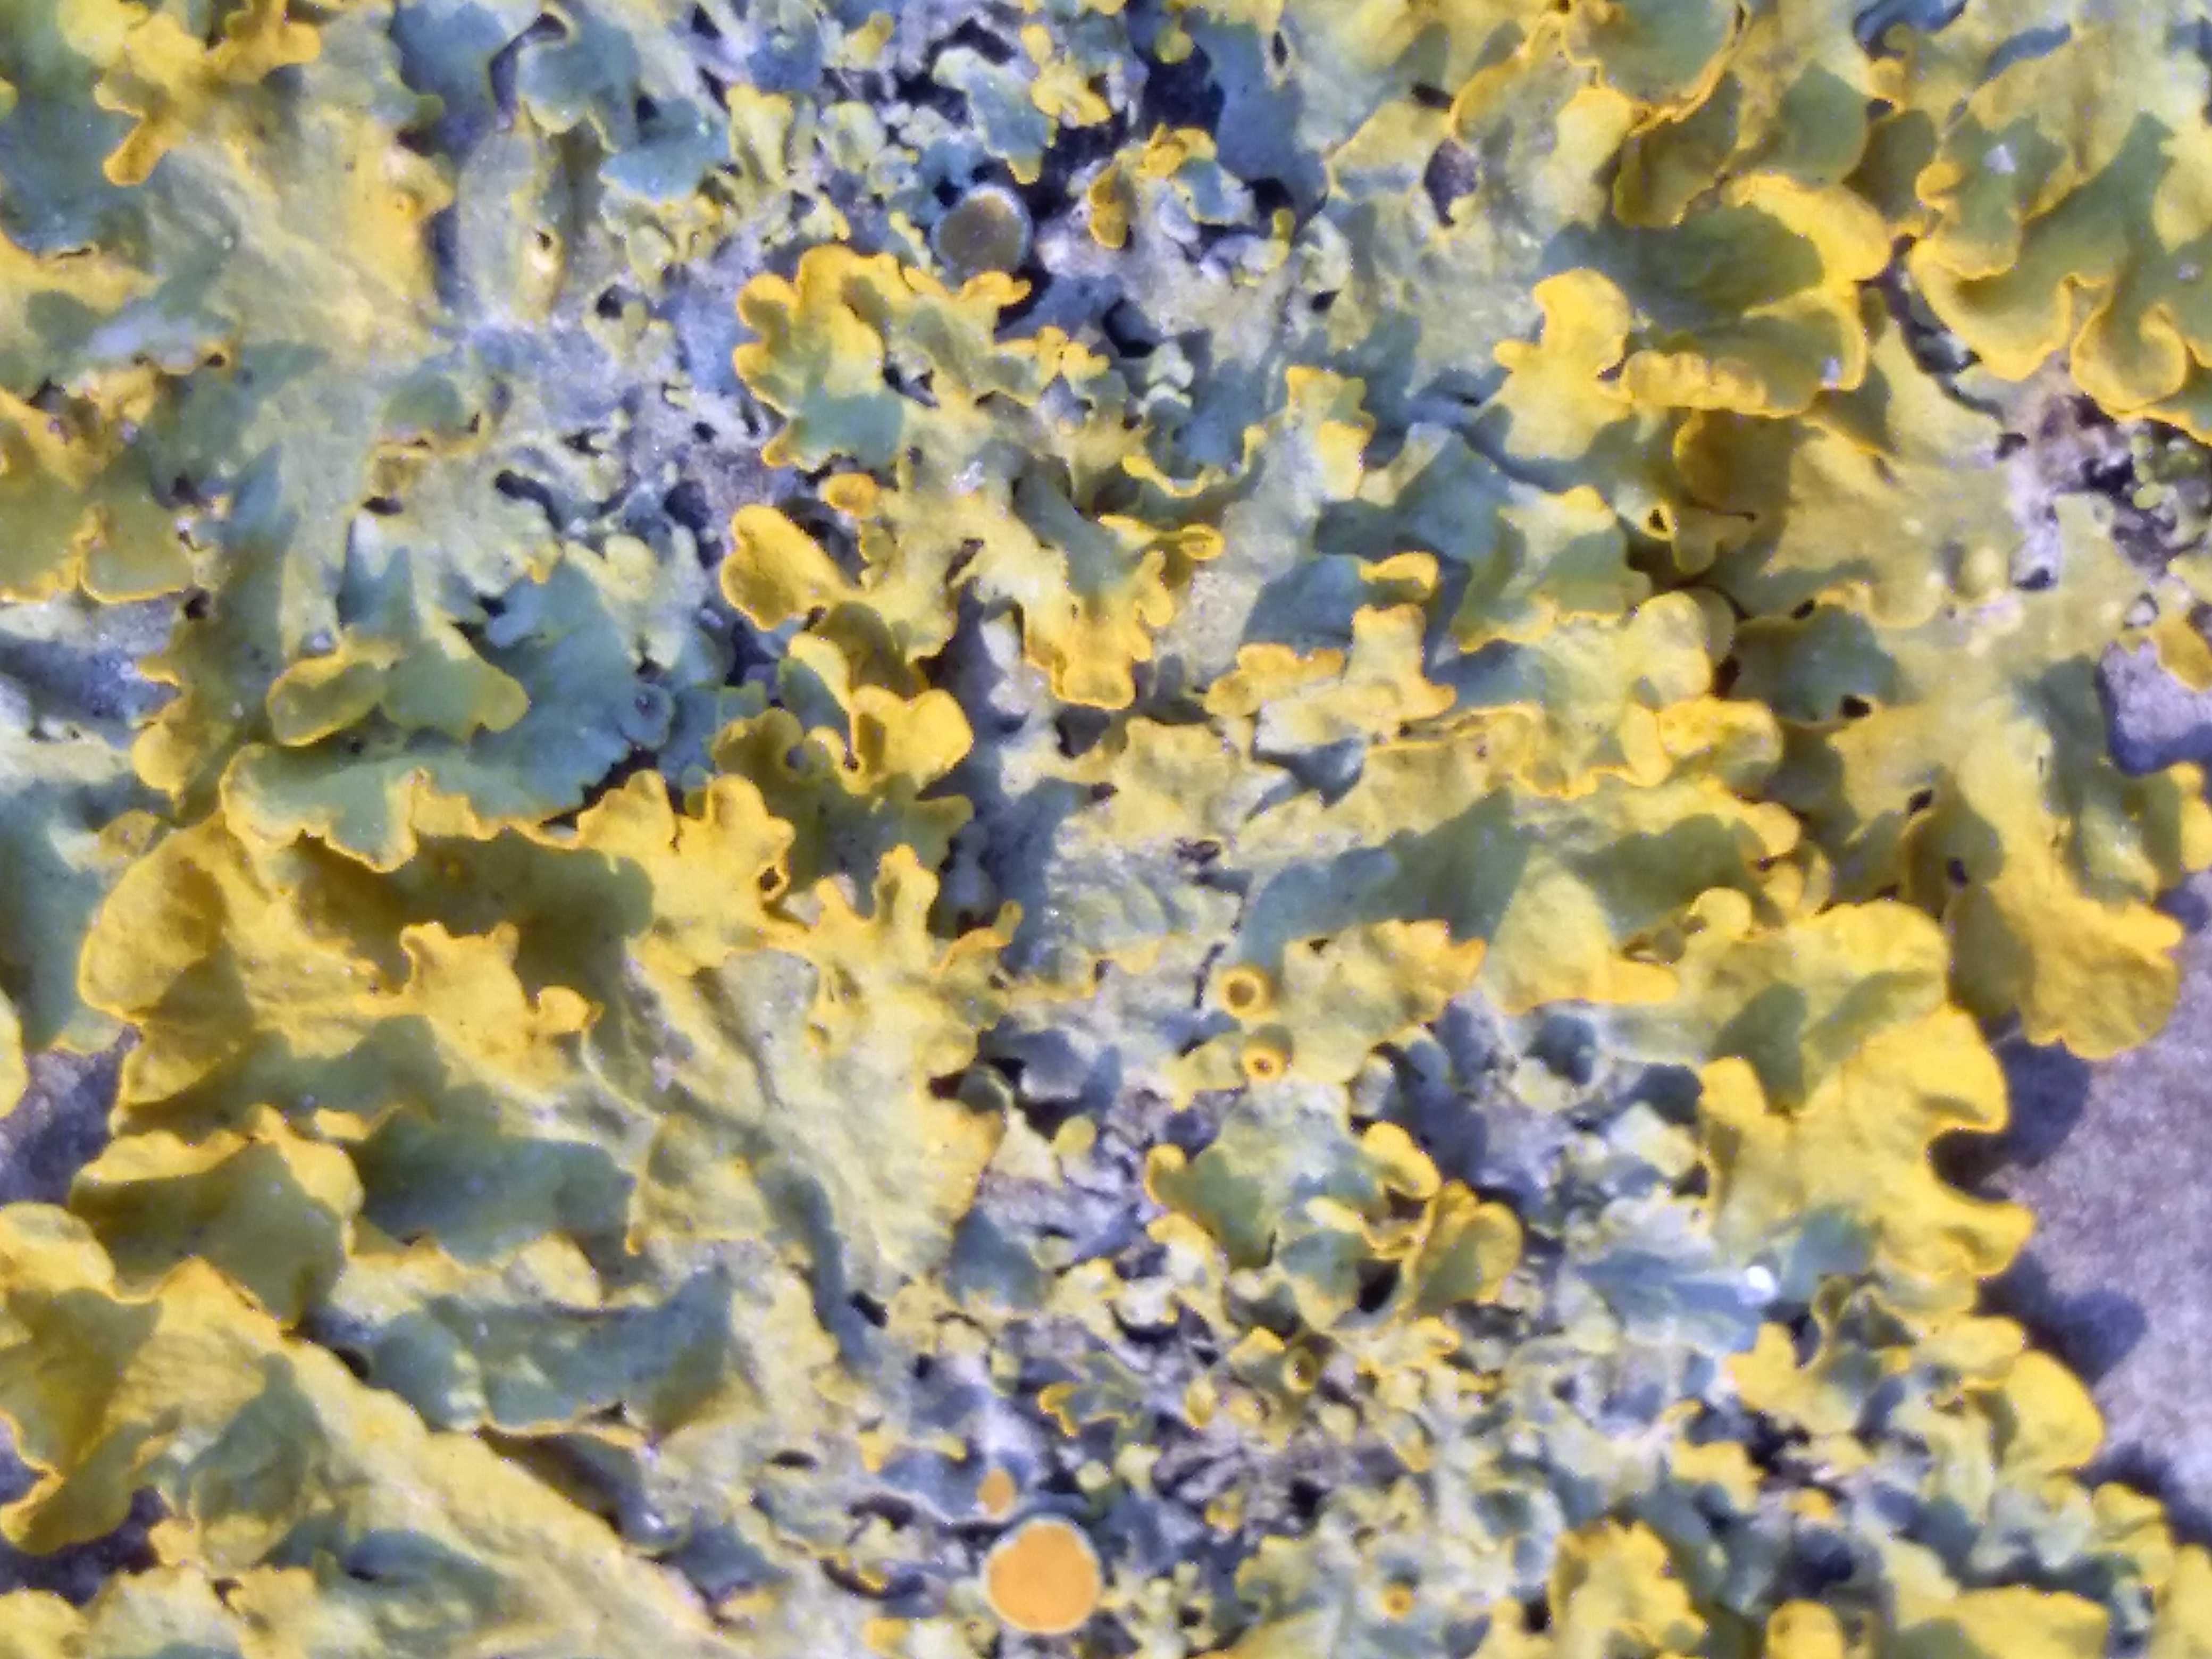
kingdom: Fungi
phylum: Ascomycota
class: Lecanoromycetes
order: Teloschistales
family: Teloschistaceae
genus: Xanthoria
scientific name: Xanthoria parietina
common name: almindelig væggelav
